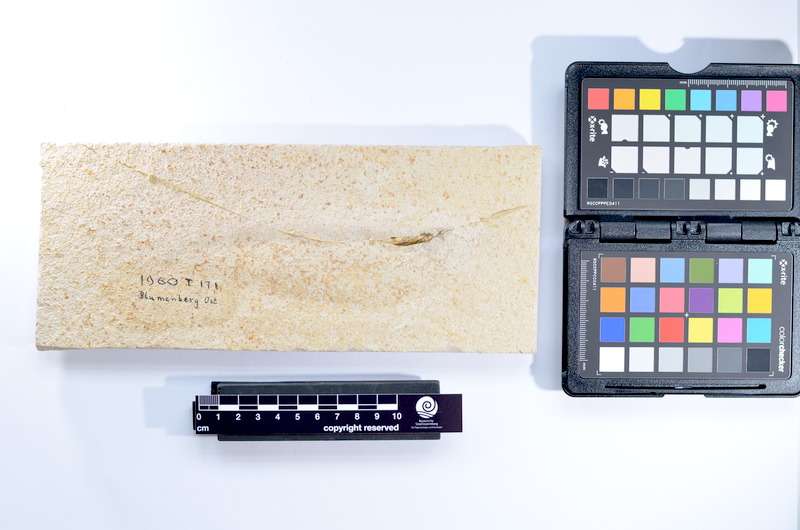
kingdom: Animalia
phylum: Chordata
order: Elopiformes
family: Anaethalionidae
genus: Anaethalion
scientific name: Anaethalion knorri
